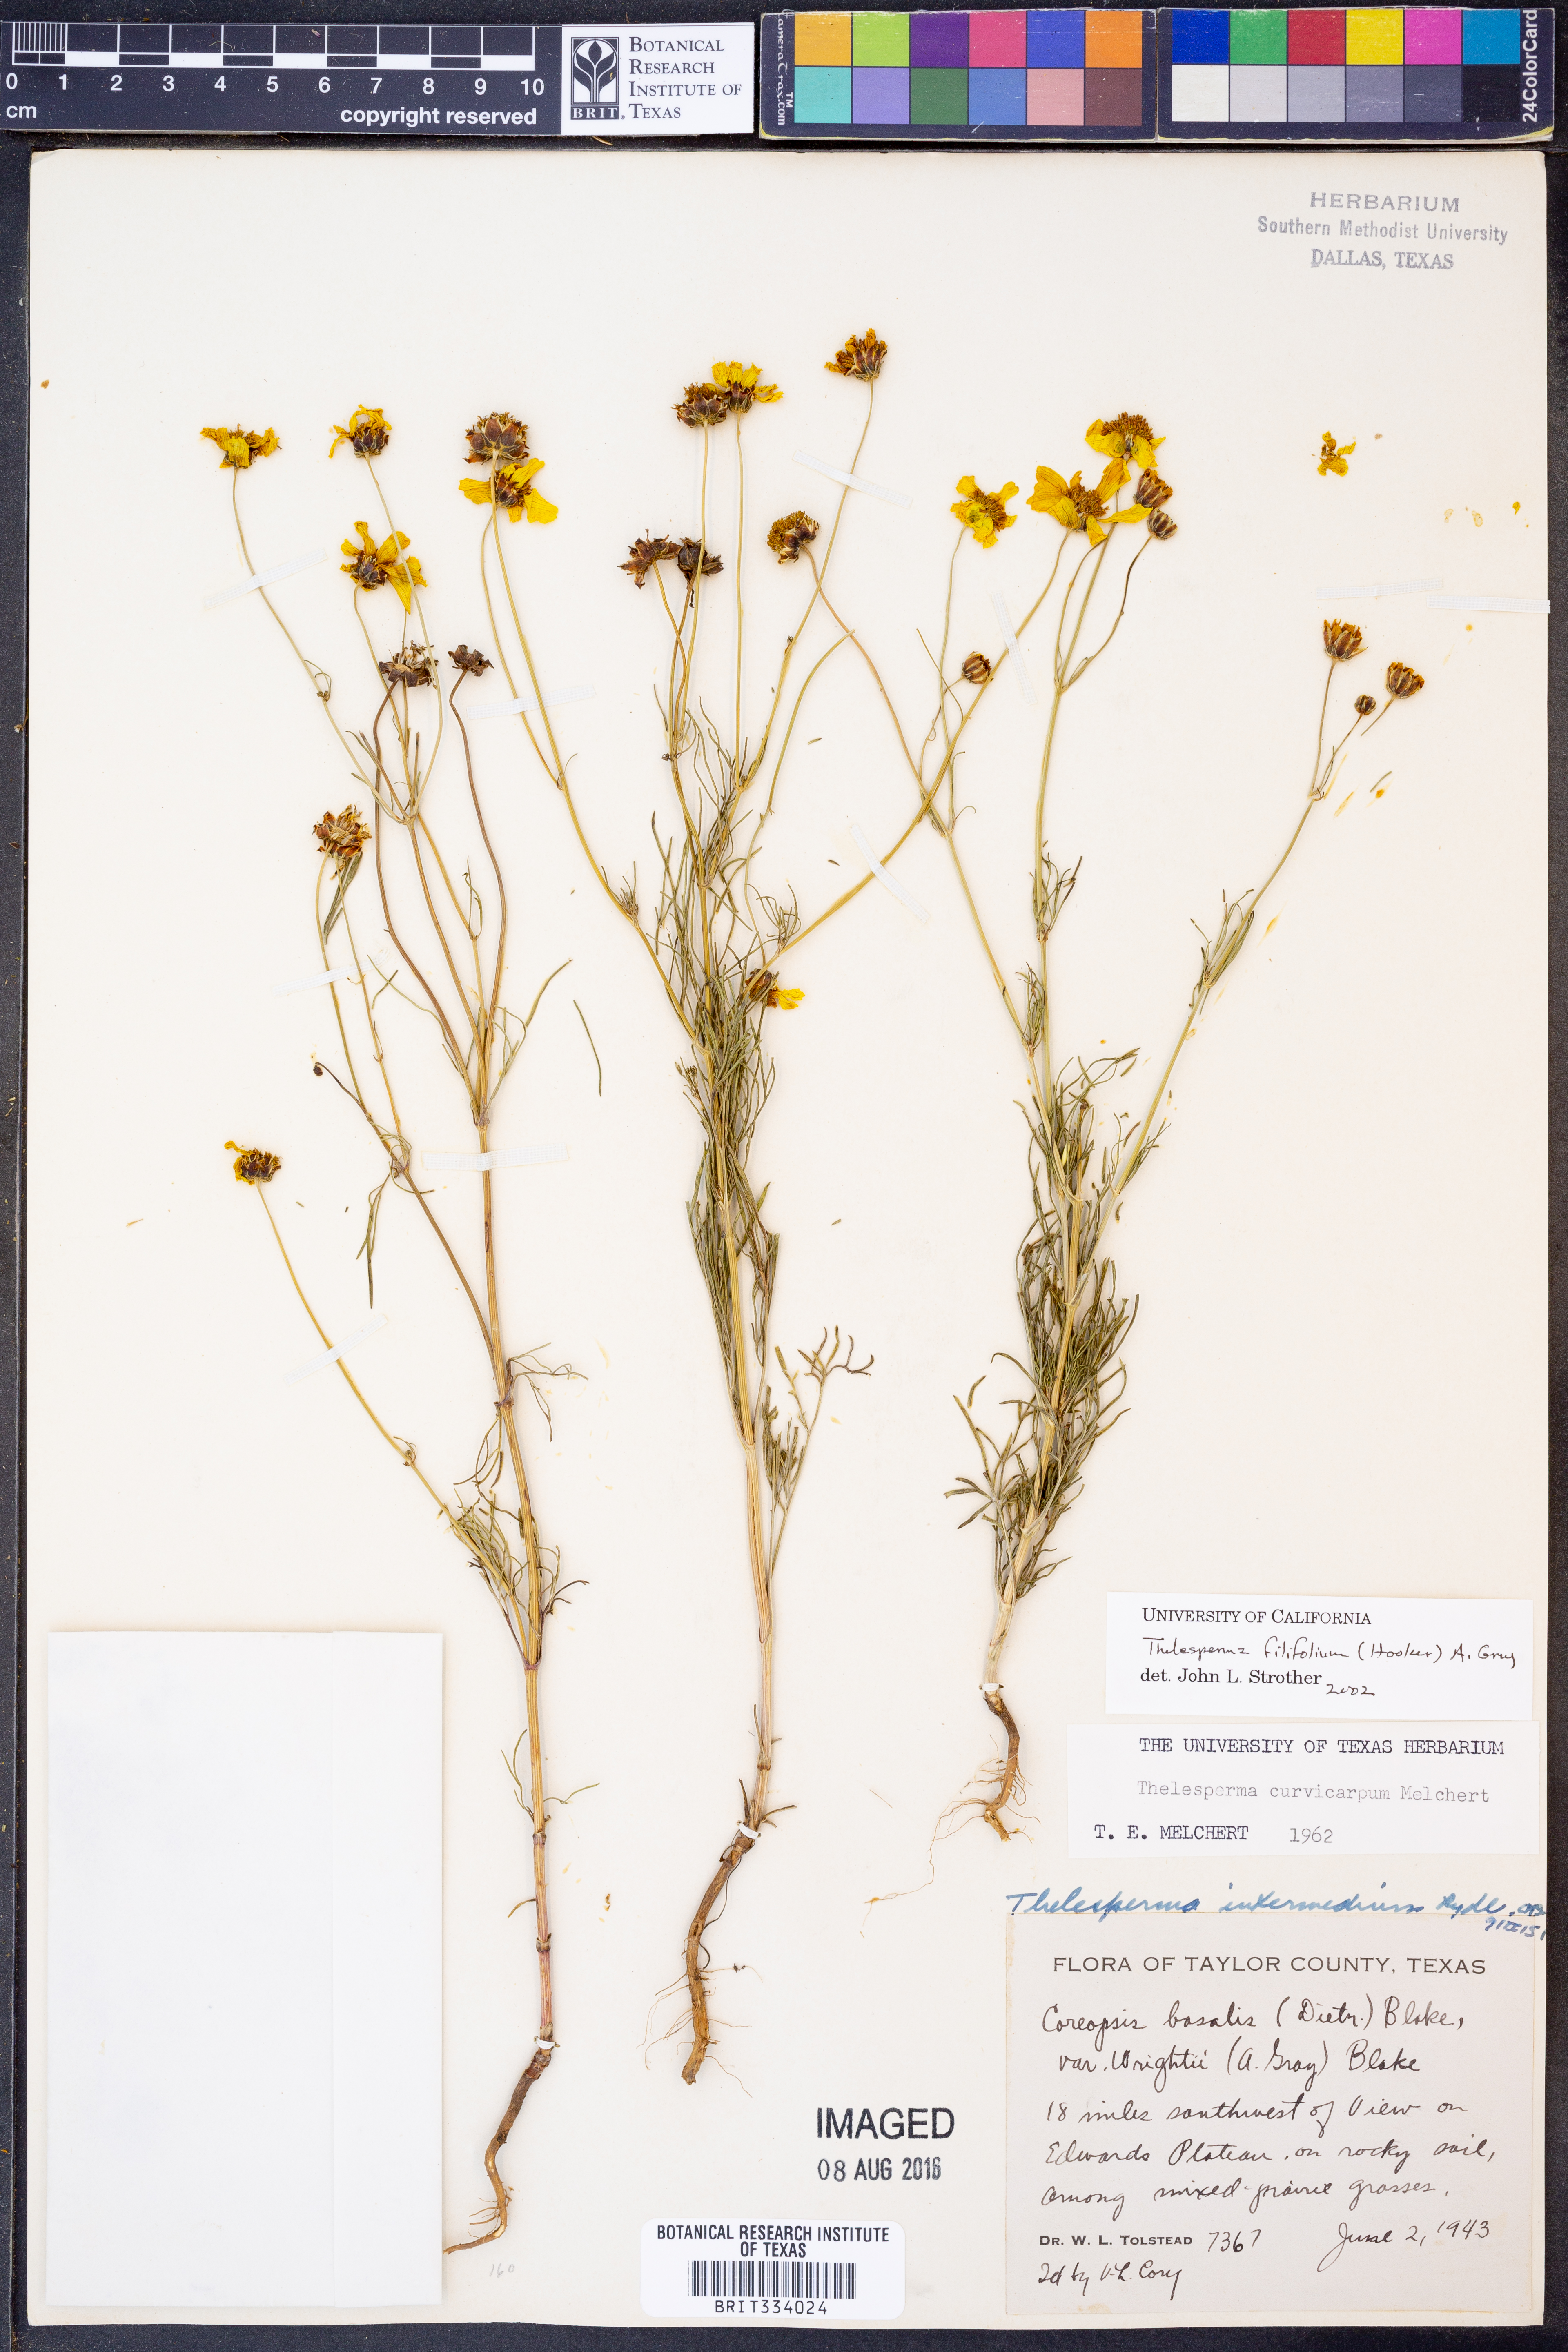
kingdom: Plantae
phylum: Tracheophyta
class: Magnoliopsida
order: Asterales
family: Asteraceae
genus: Thelesperma
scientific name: Thelesperma filifolium
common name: Stiff greenthread
